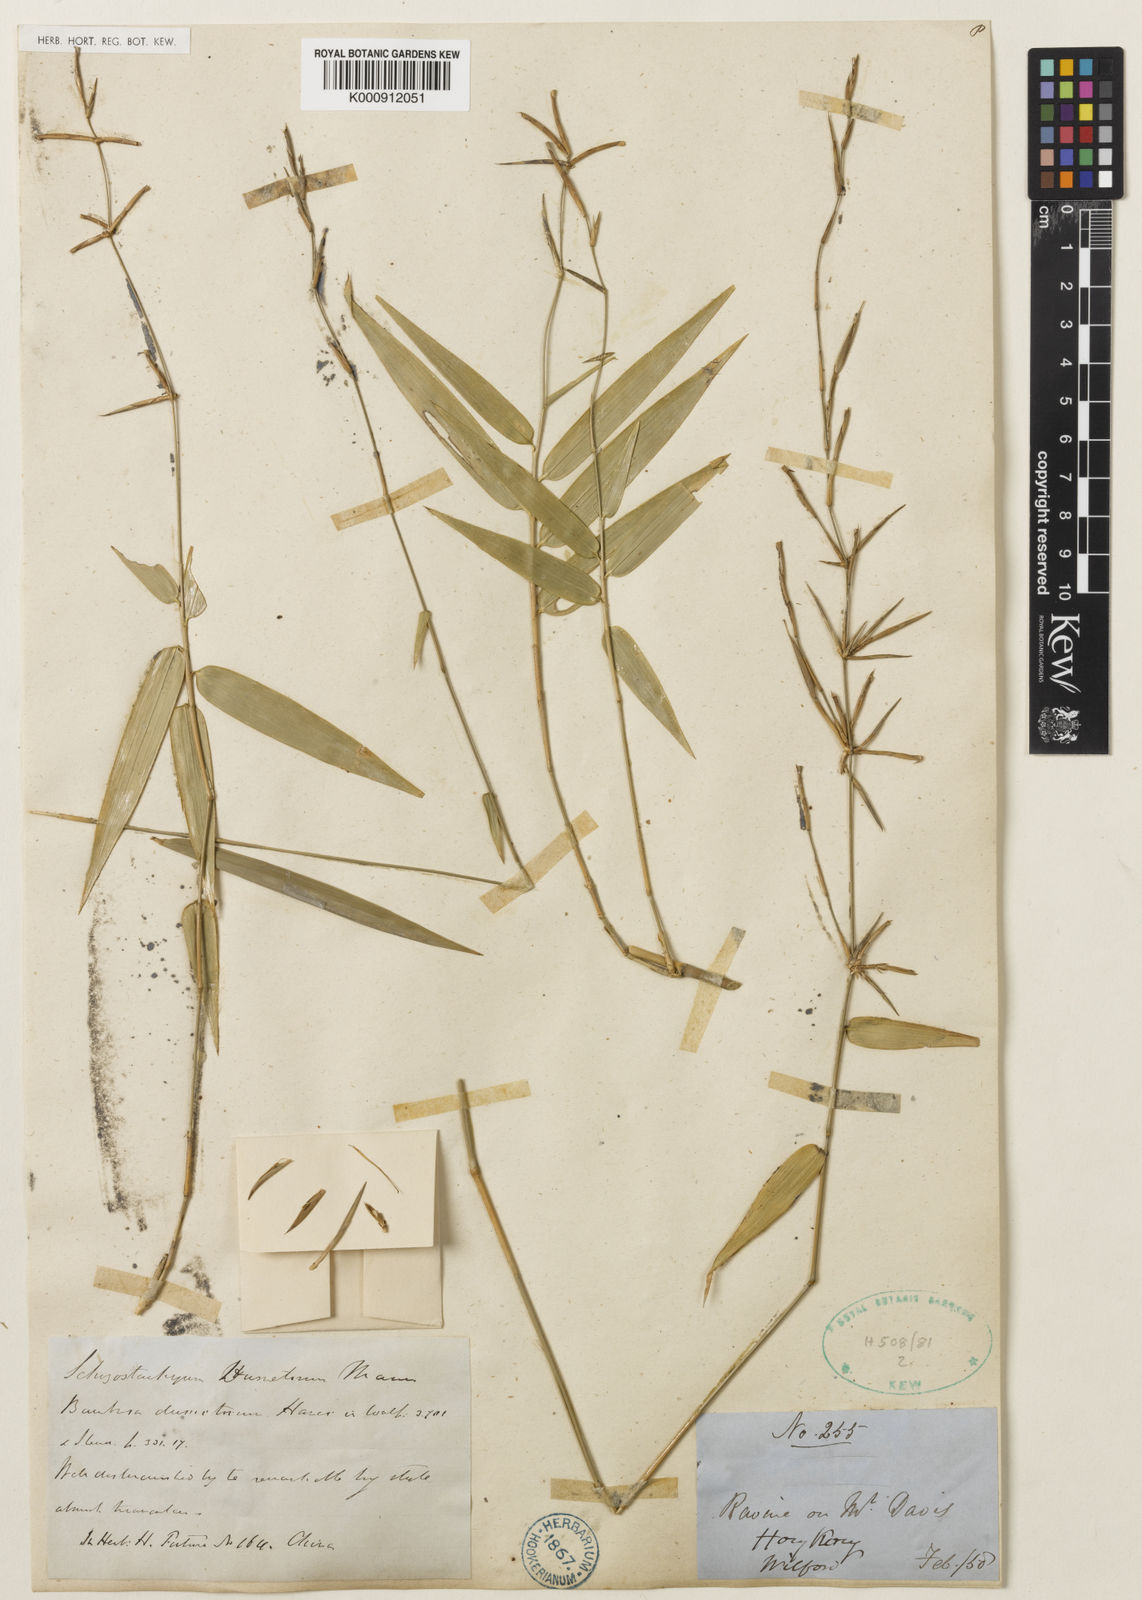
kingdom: Plantae
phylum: Tracheophyta
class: Liliopsida
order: Poales
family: Poaceae
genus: Schizostachyum
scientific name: Schizostachyum dumetorum
